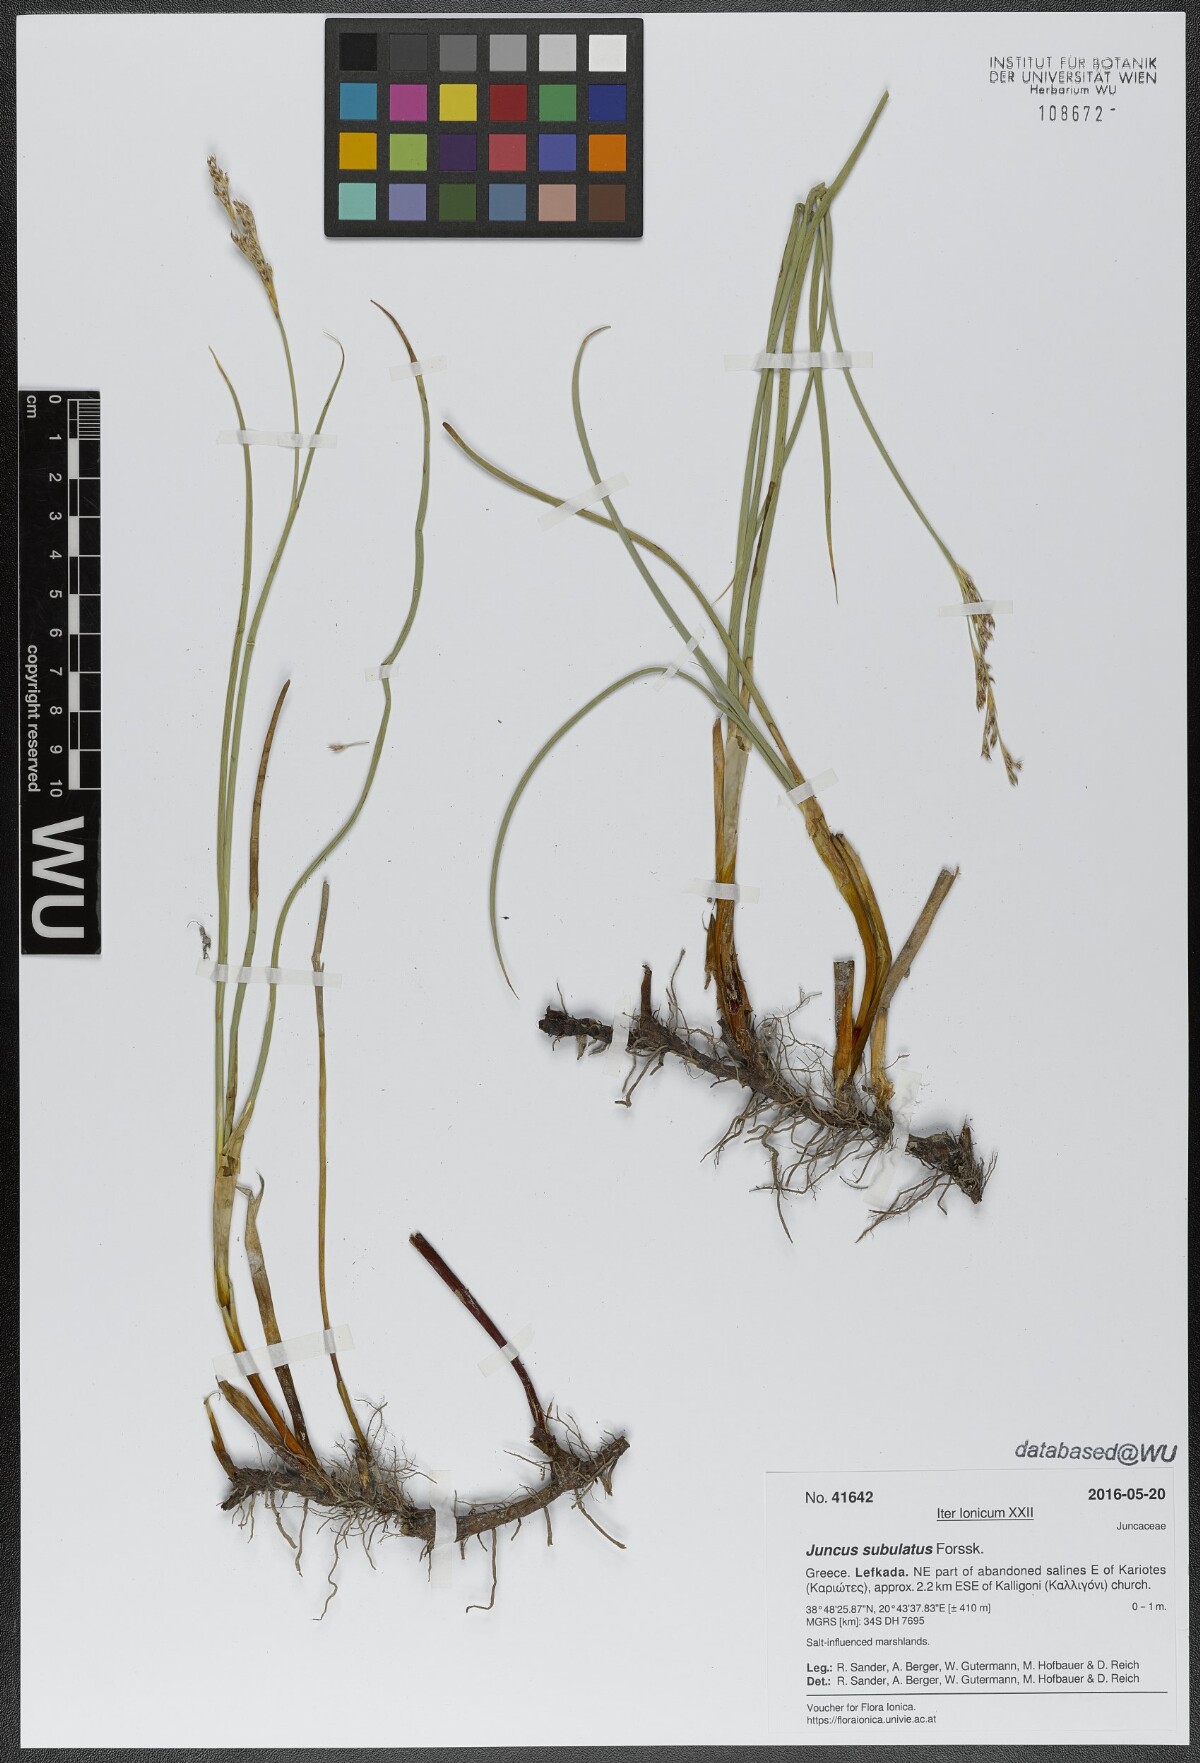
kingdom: Plantae
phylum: Tracheophyta
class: Liliopsida
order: Poales
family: Juncaceae
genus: Juncus
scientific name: Juncus subulatus
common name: Somerset rush
